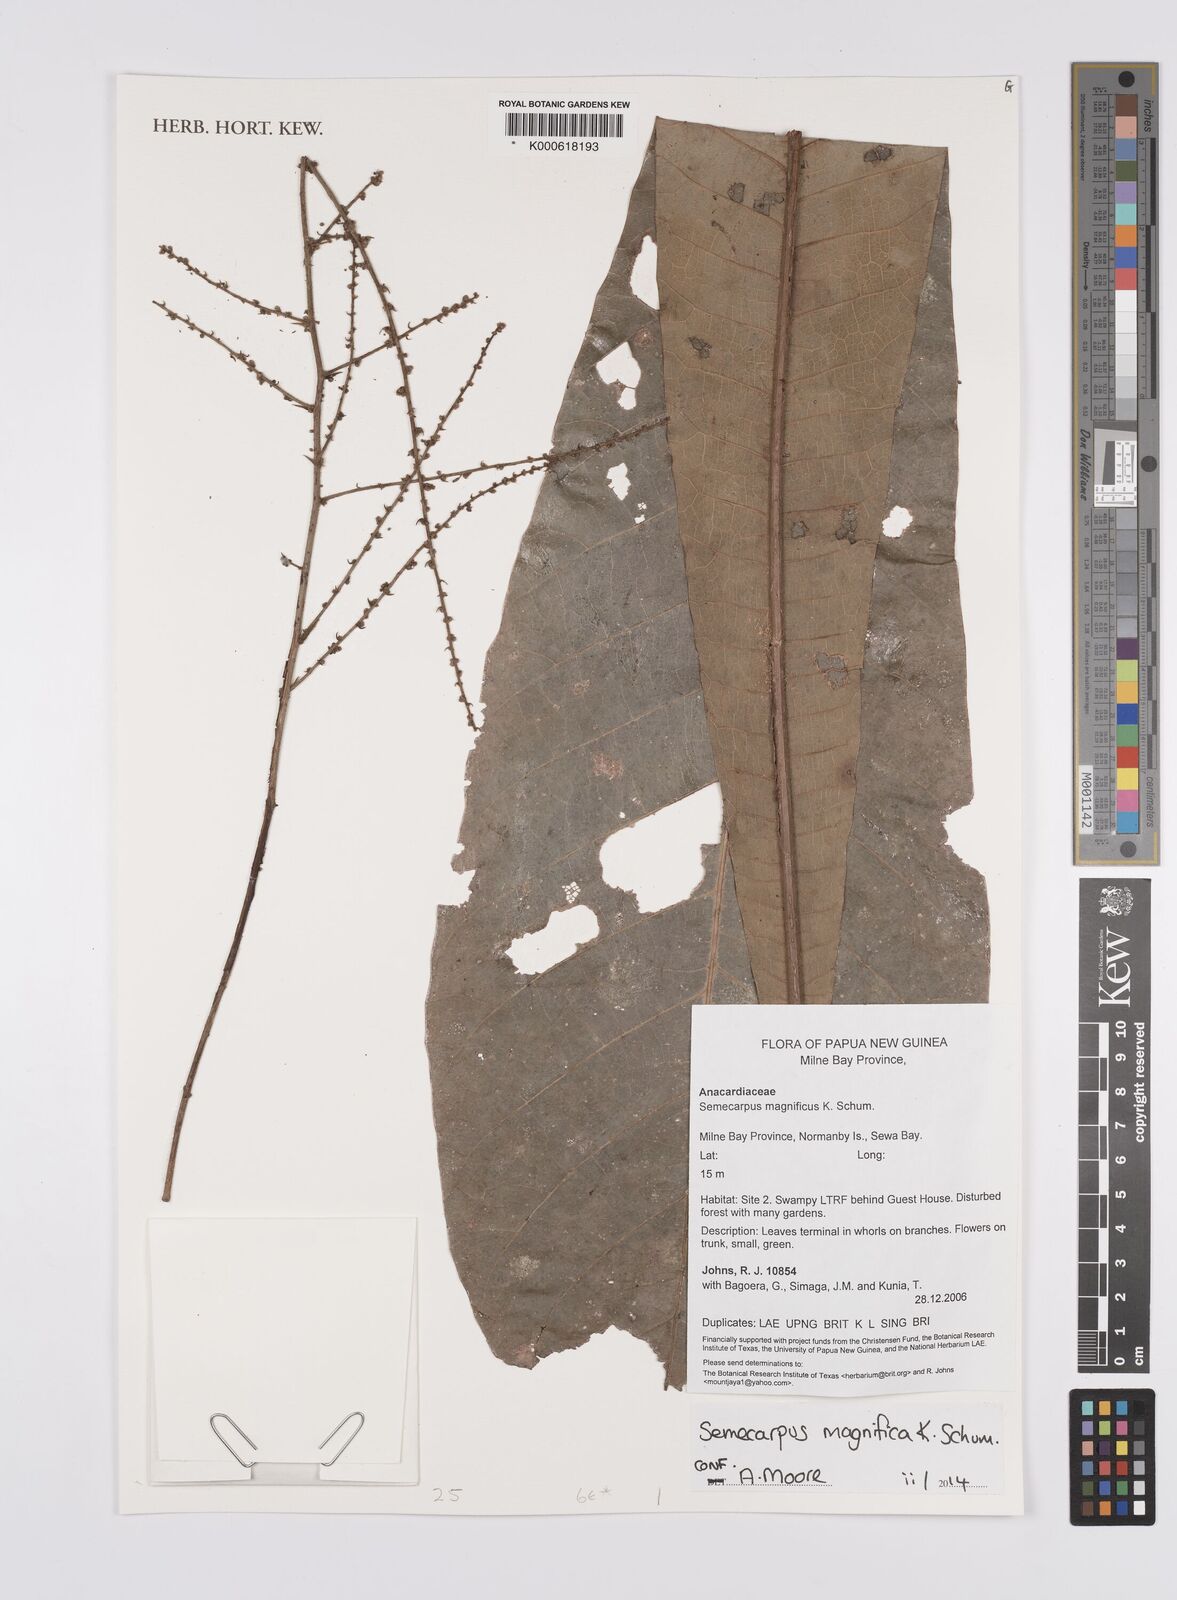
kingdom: Plantae
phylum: Tracheophyta
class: Magnoliopsida
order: Sapindales
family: Anacardiaceae
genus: Semecarpus
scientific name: Semecarpus magnificus
